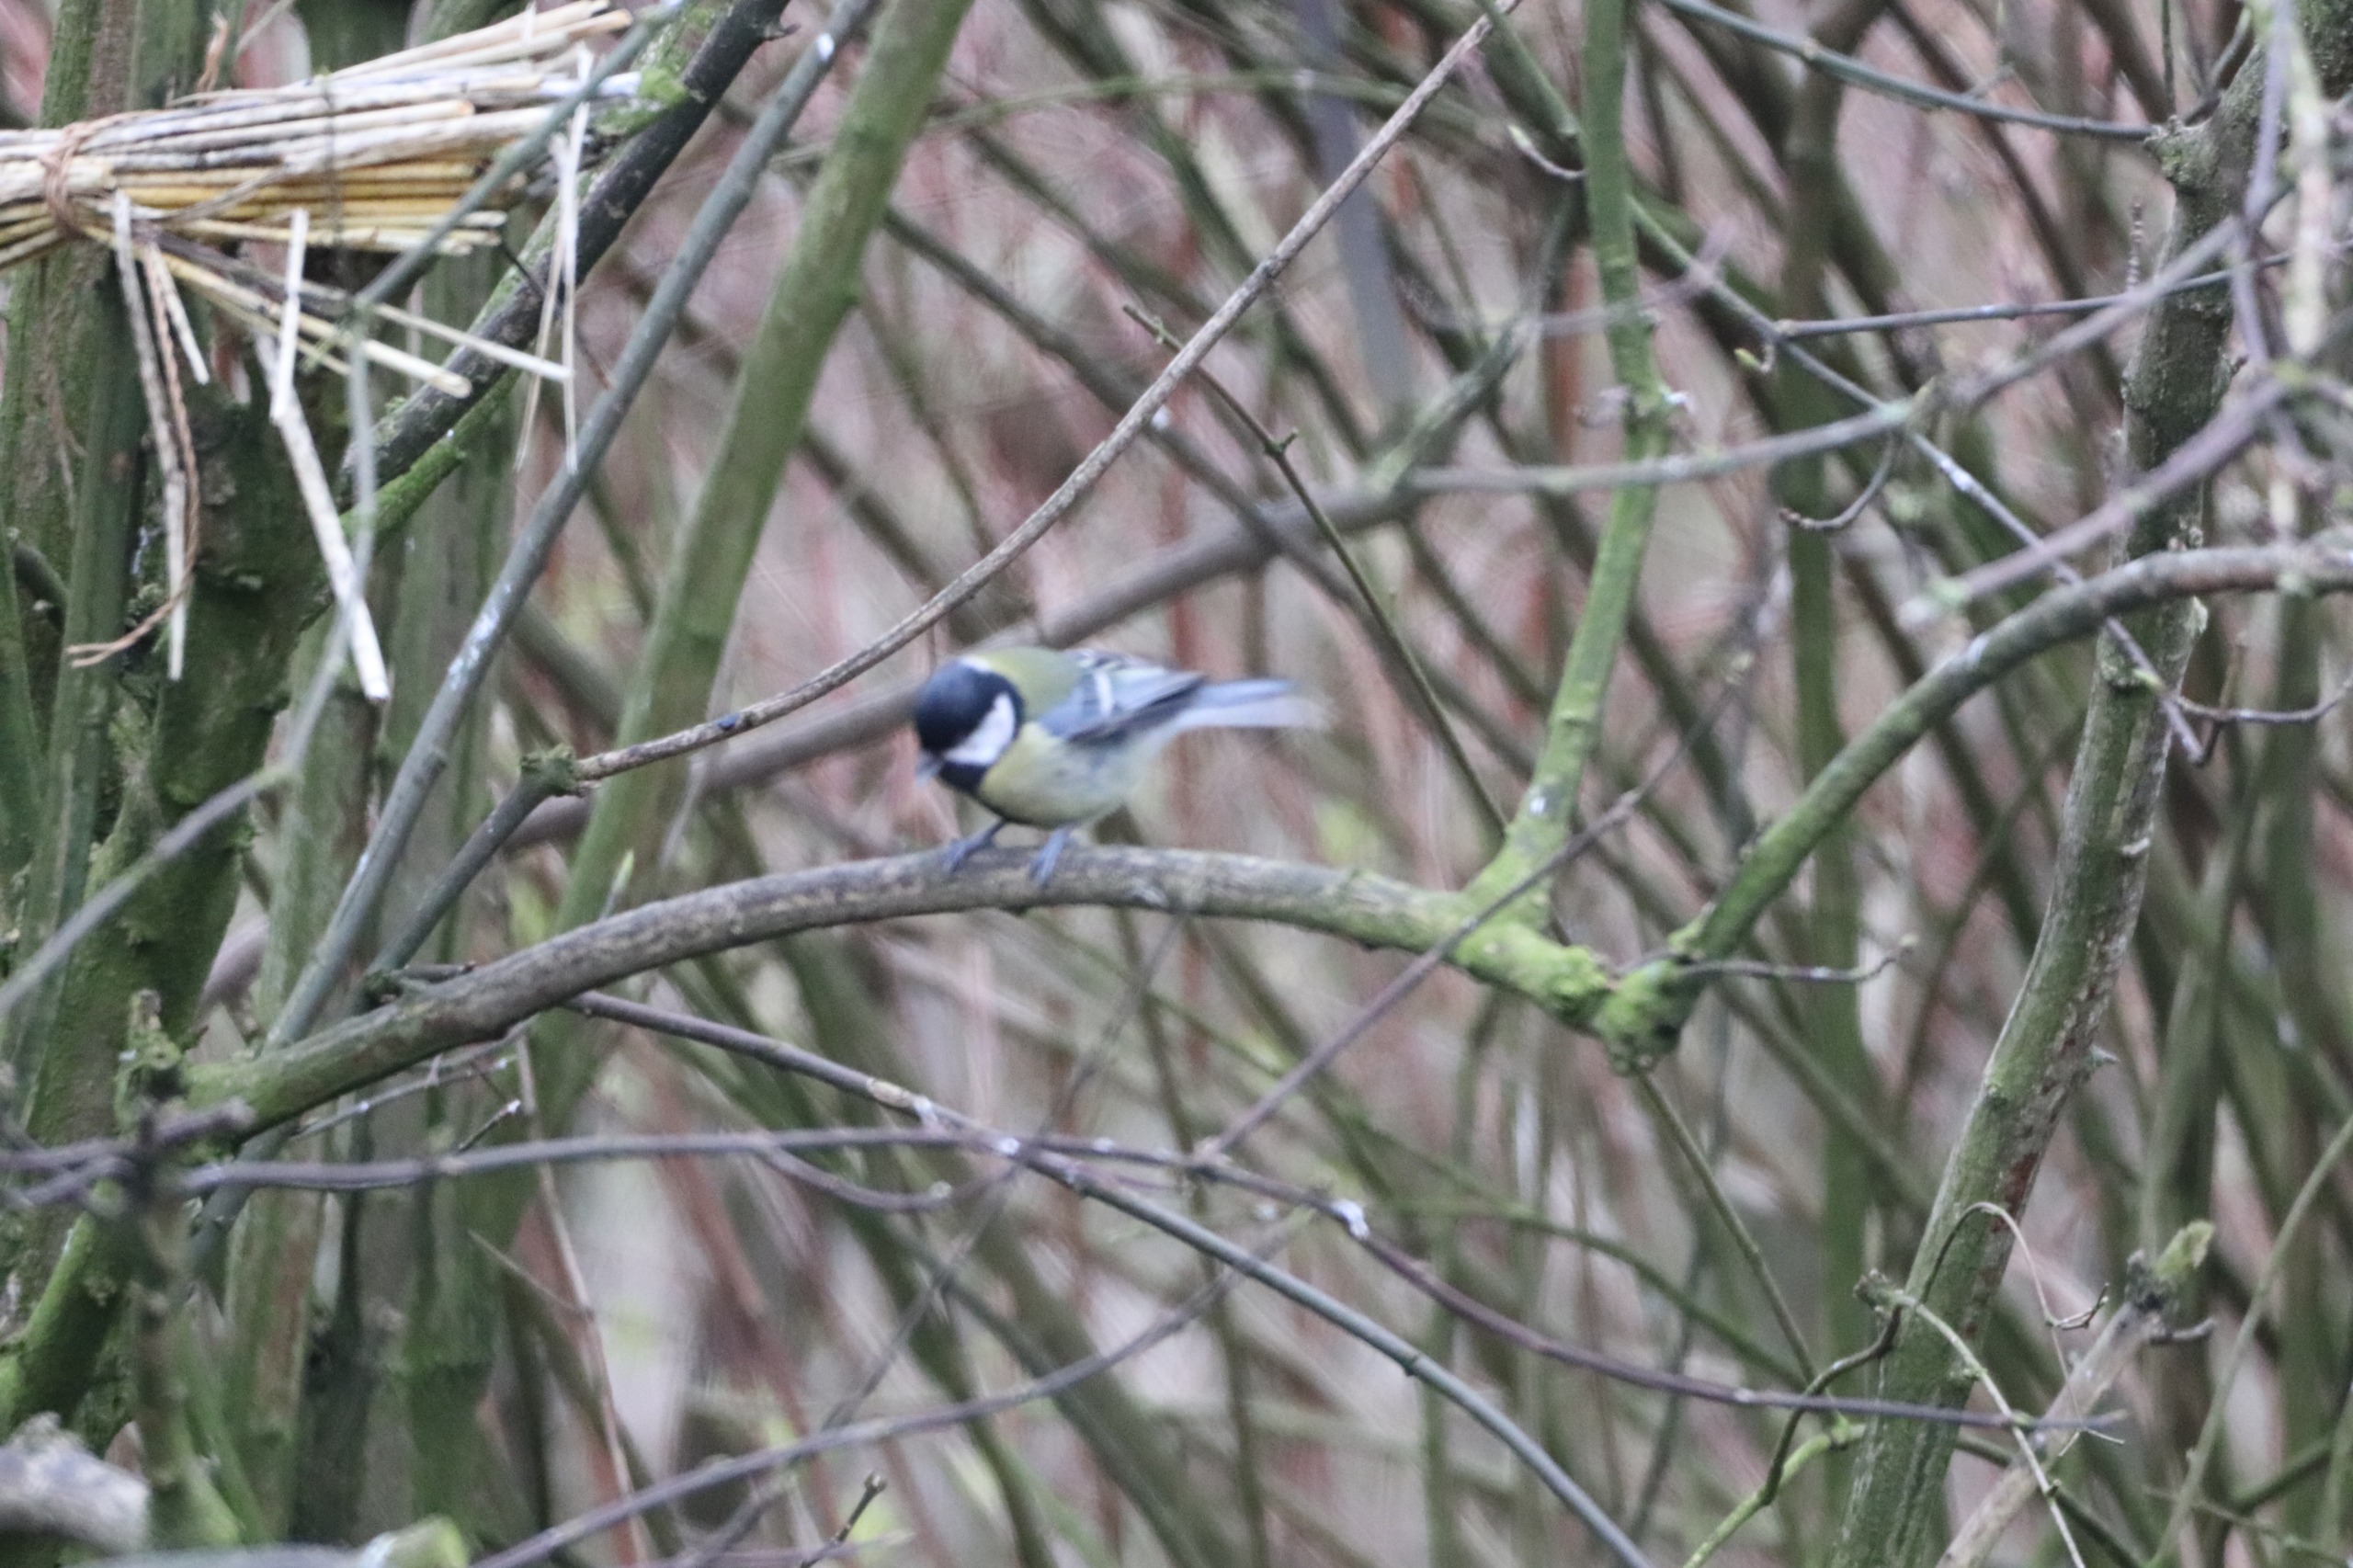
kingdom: Animalia
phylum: Chordata
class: Aves
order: Passeriformes
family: Paridae
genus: Parus
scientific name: Parus major
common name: Musvit
